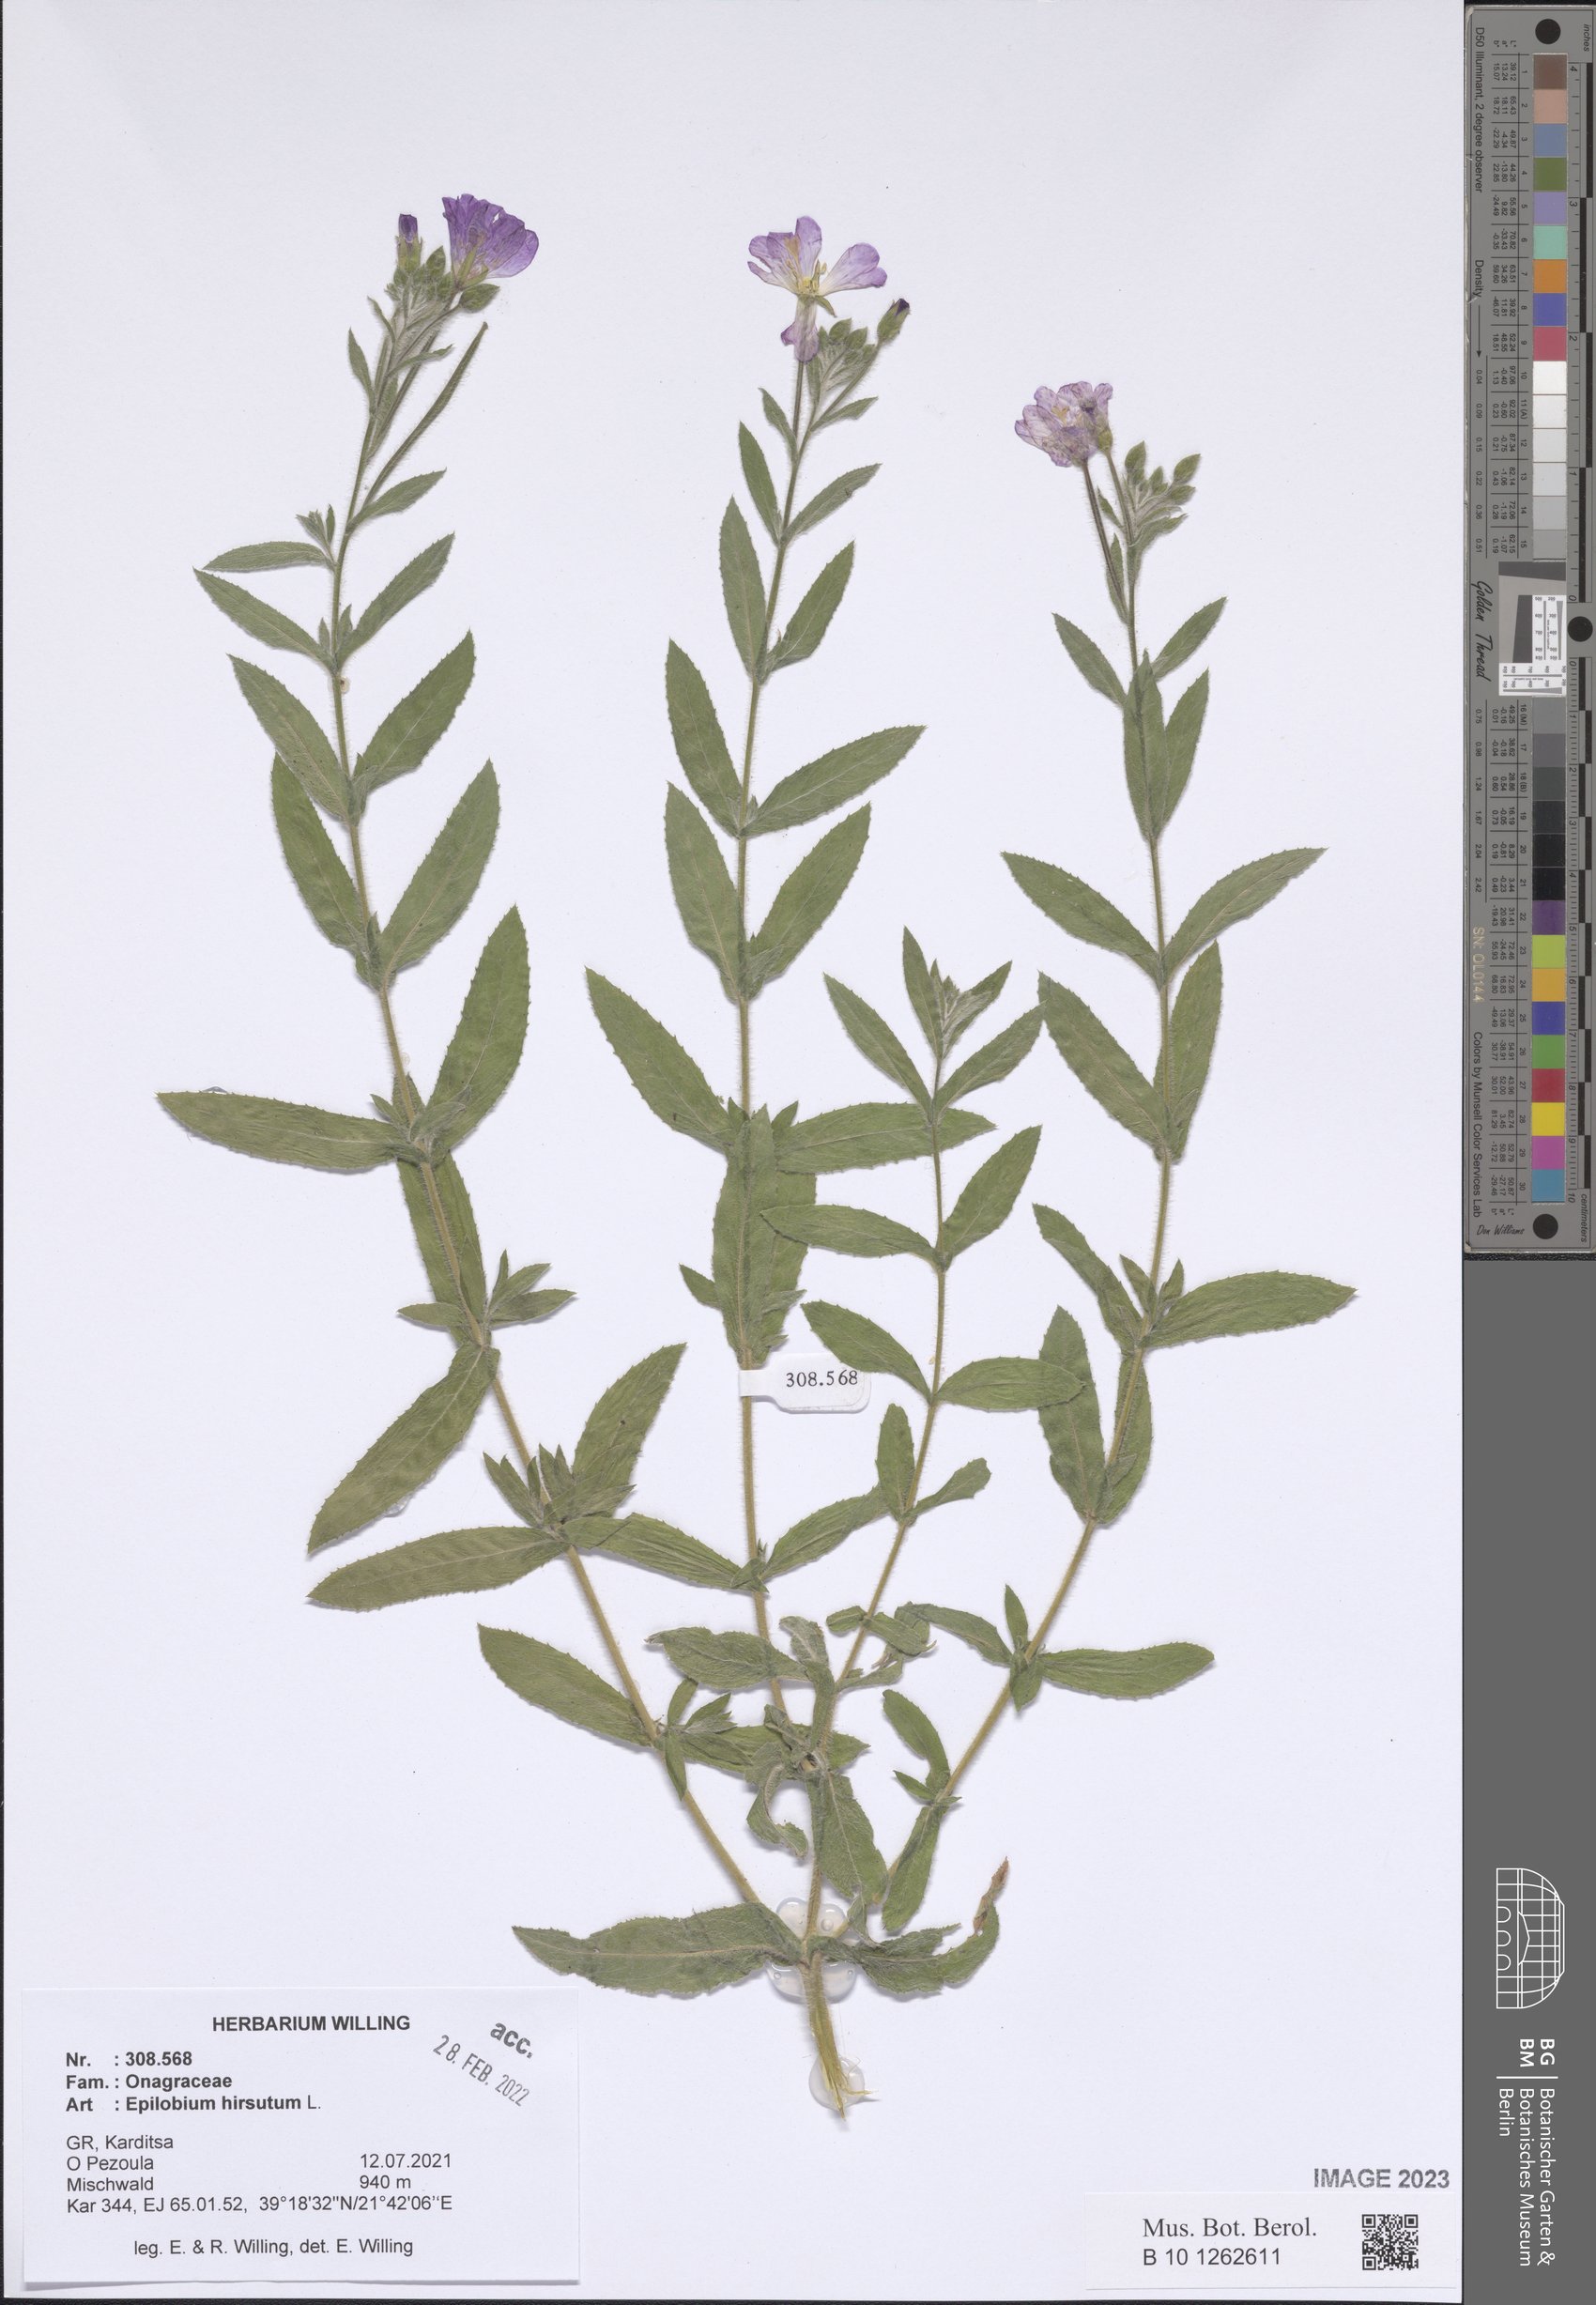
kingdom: Plantae
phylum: Tracheophyta
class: Magnoliopsida
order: Myrtales
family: Onagraceae
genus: Epilobium
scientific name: Epilobium hirsutum
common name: Great willowherb
